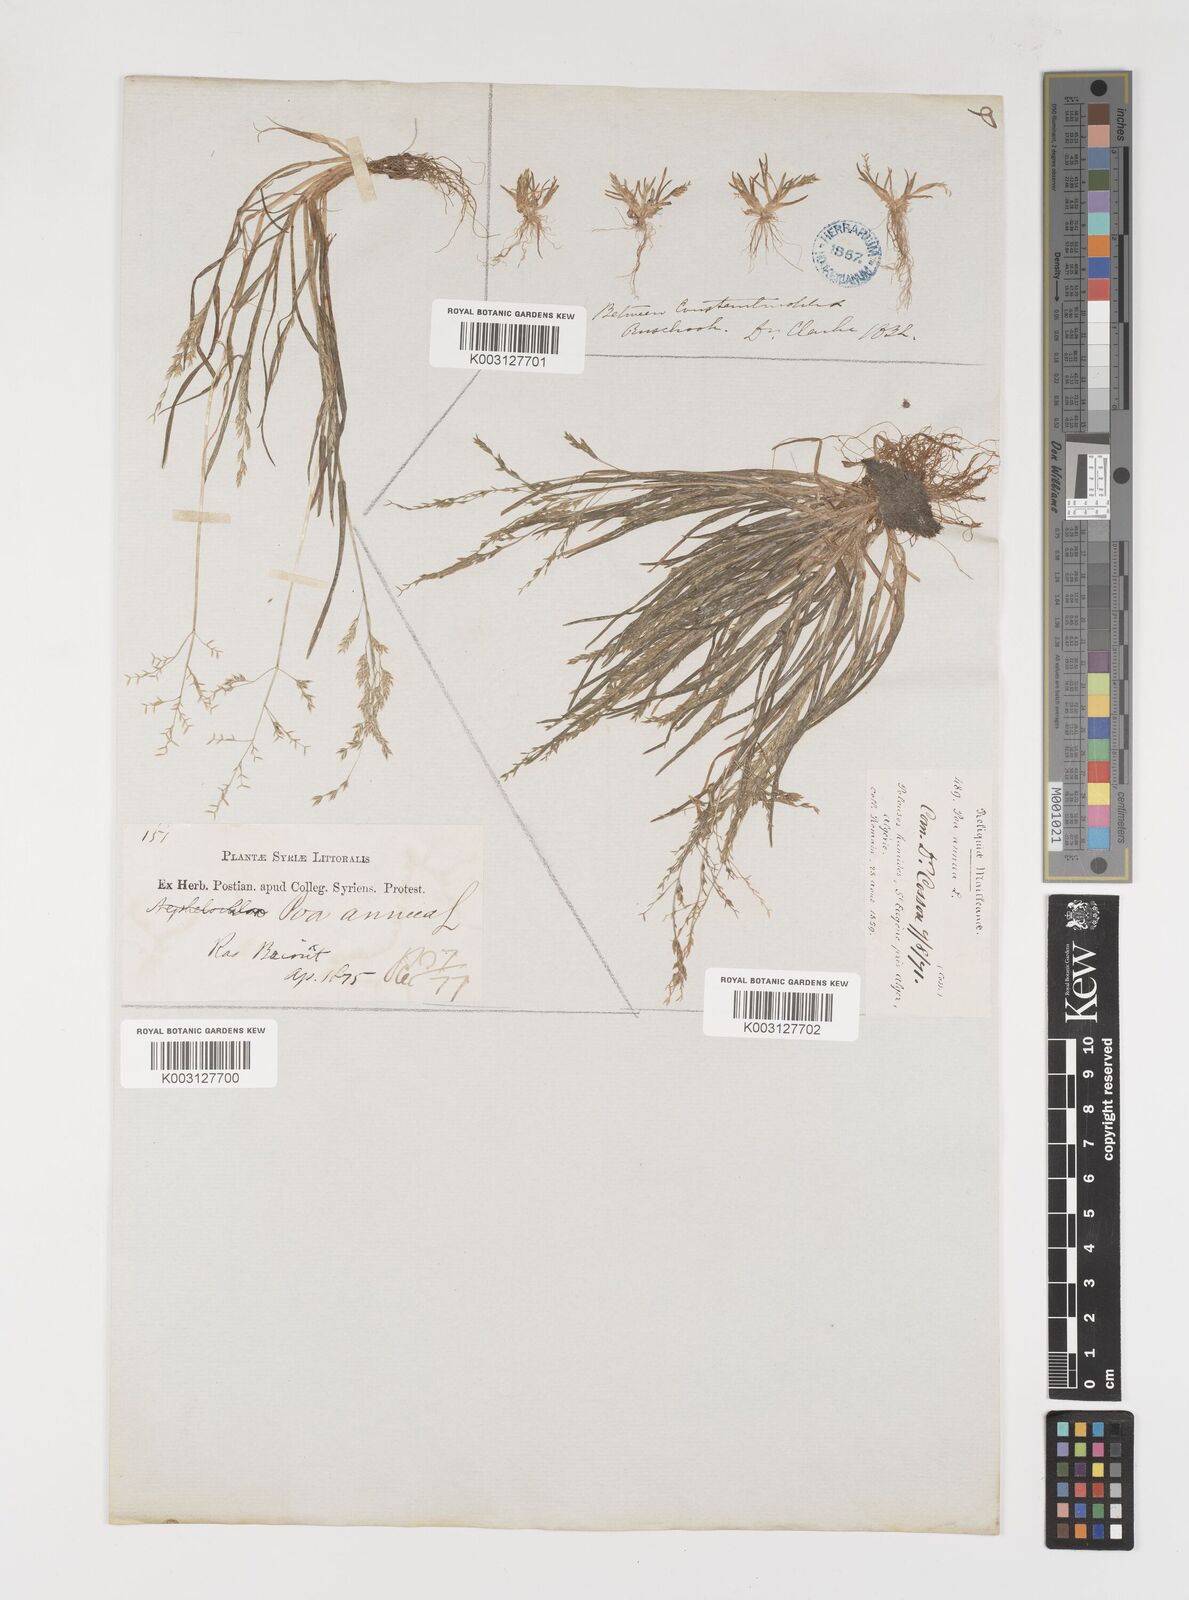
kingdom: Plantae
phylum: Tracheophyta
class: Liliopsida
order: Poales
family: Poaceae
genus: Poa
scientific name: Poa annua
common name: Annual bluegrass
